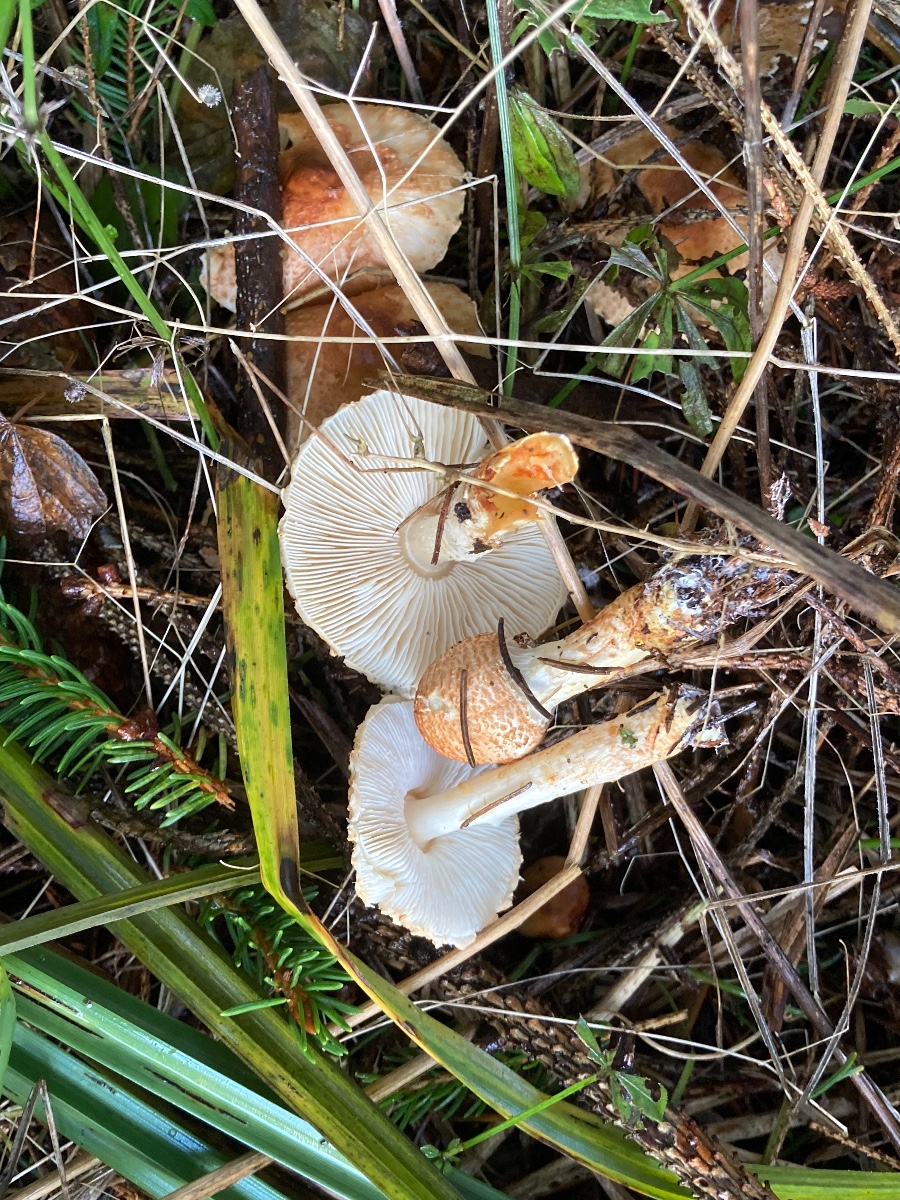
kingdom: Fungi
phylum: Basidiomycota
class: Agaricomycetes
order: Agaricales
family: Agaricaceae
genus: Lepiota
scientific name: Lepiota ochraceofulva
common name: sødtduftende parasolhat
